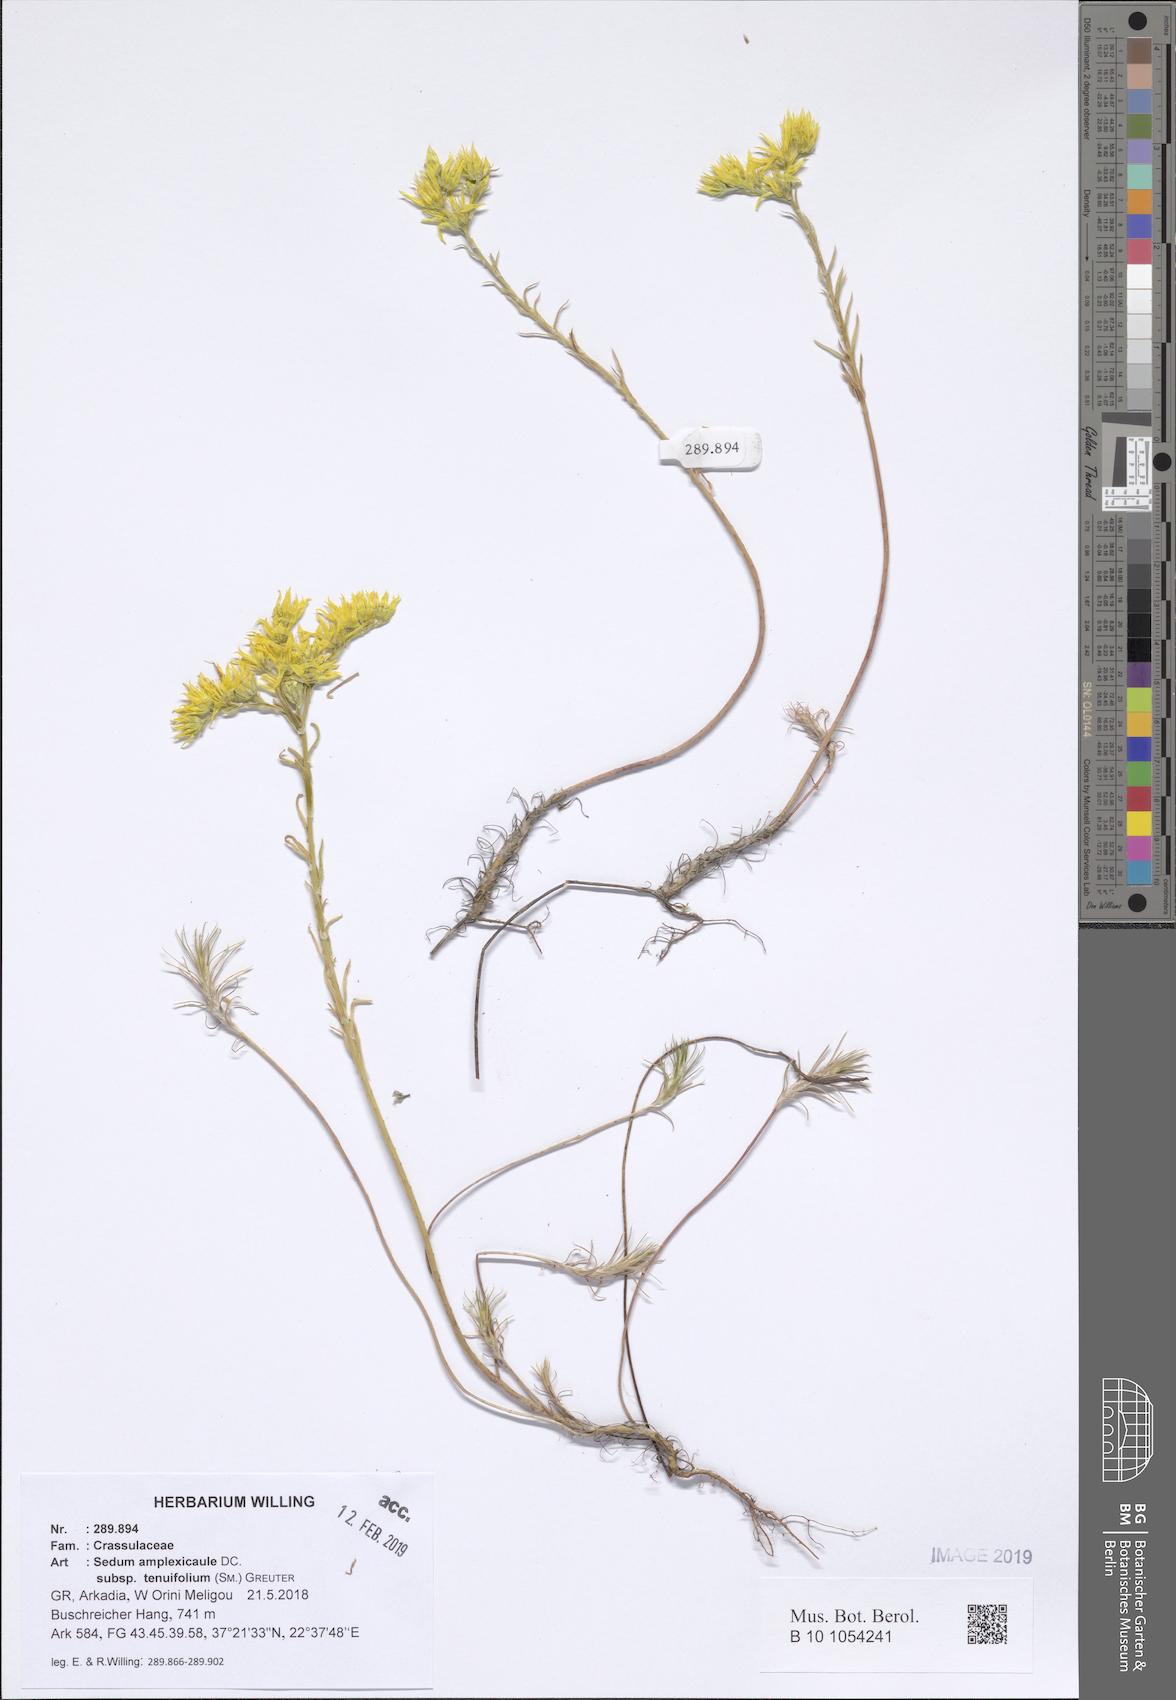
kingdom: Plantae
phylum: Tracheophyta
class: Magnoliopsida
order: Saxifragales
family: Crassulaceae
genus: Petrosedum
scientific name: Petrosedum tenuifolium
